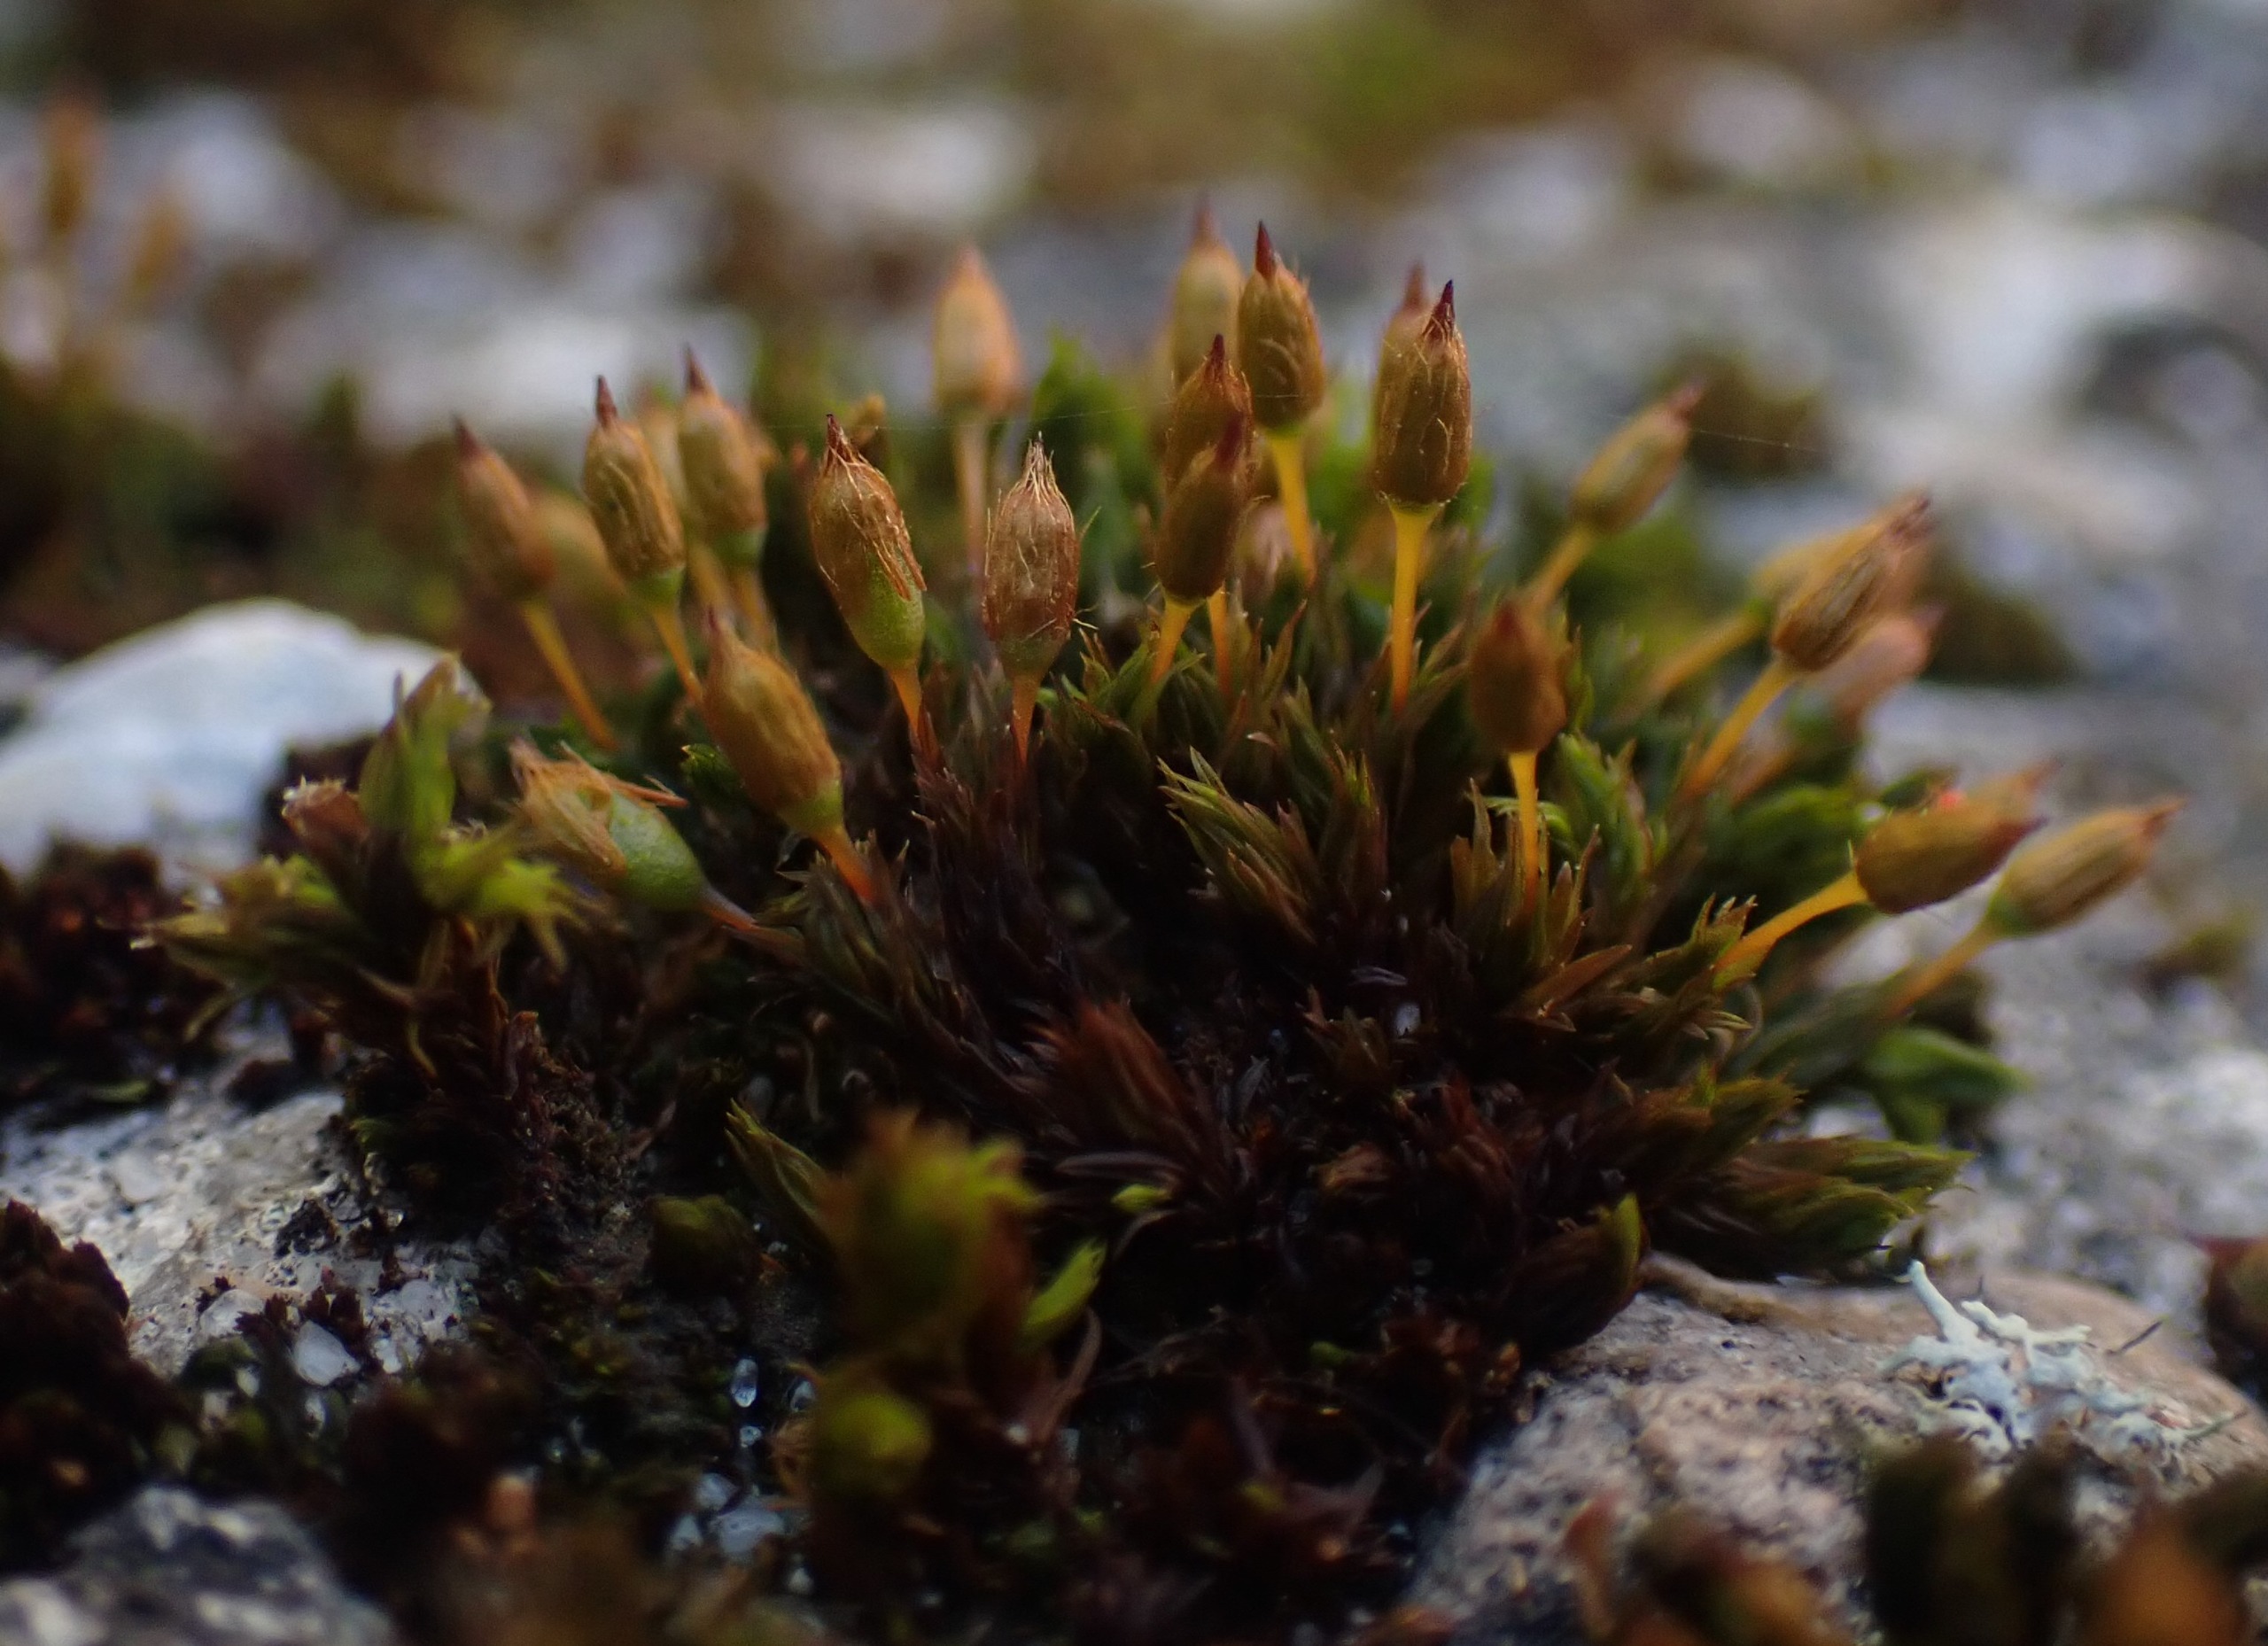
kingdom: Plantae
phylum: Bryophyta
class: Bryopsida
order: Orthotrichales
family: Orthotrichaceae
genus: Orthotrichum
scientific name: Orthotrichum anomalum
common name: Mørk furehætte
